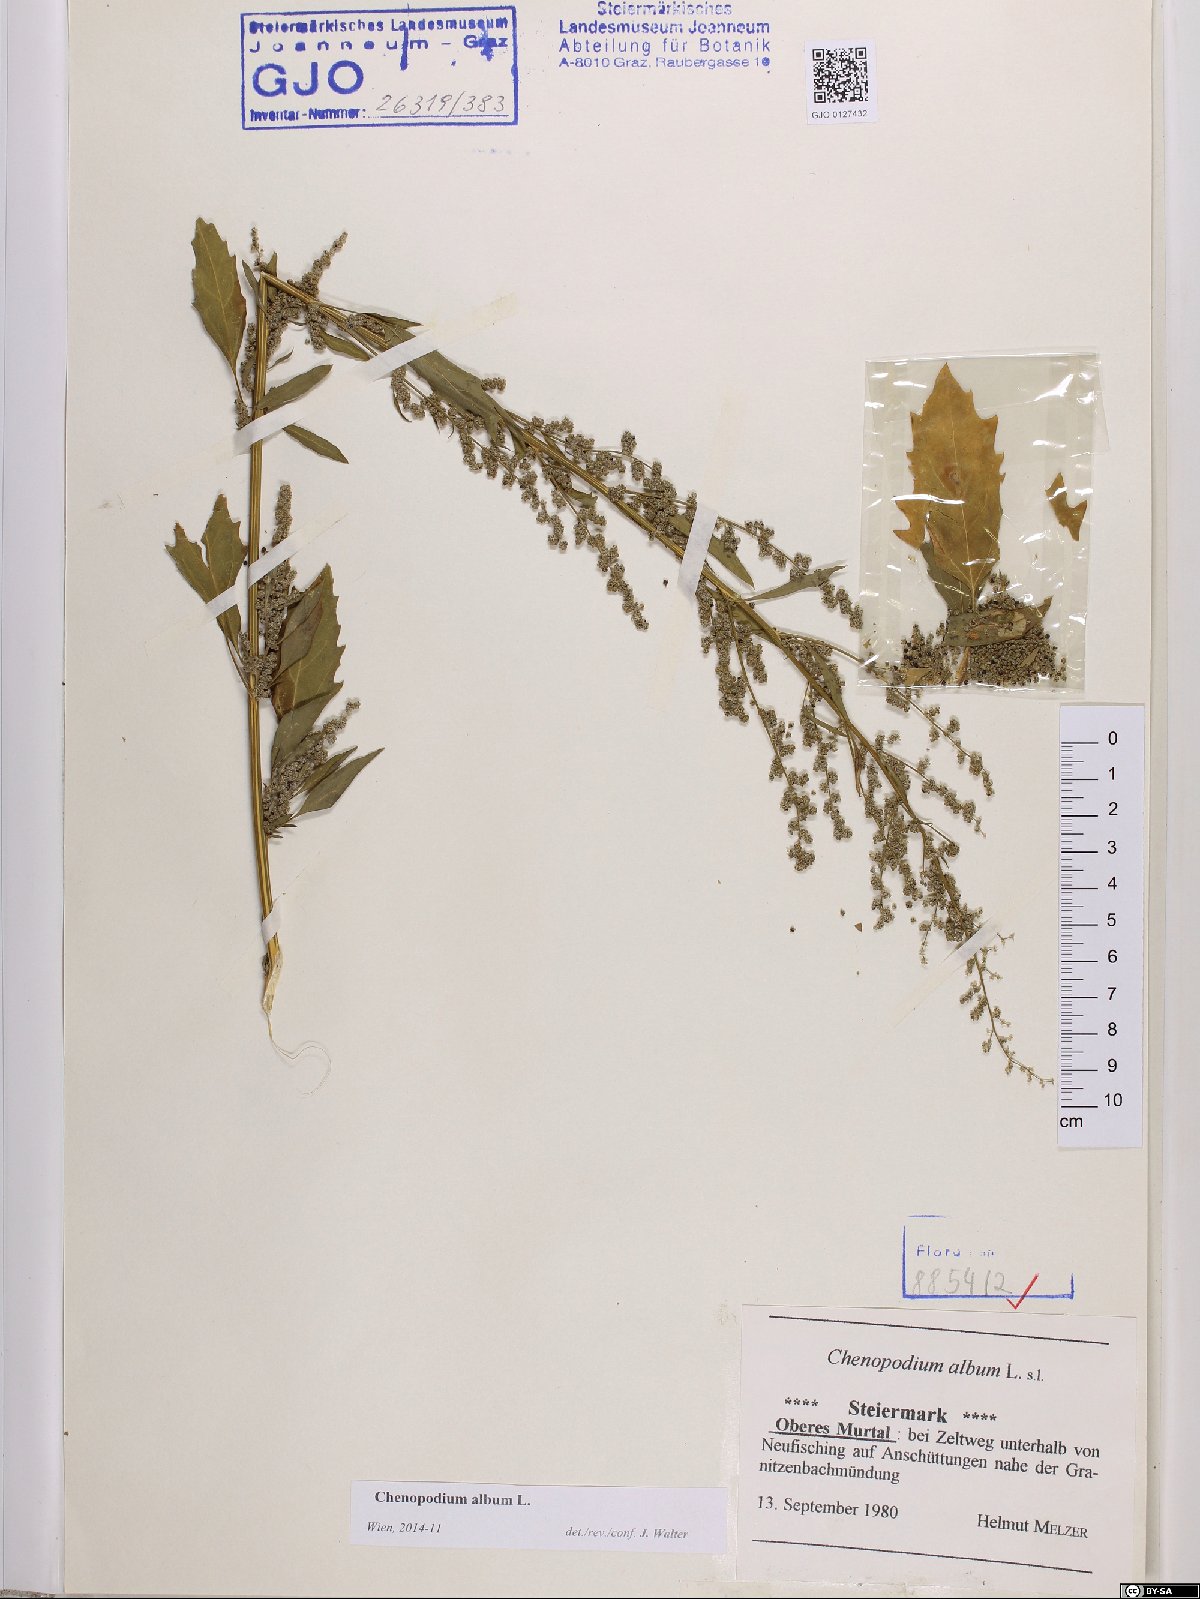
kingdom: Plantae
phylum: Tracheophyta
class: Magnoliopsida
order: Caryophyllales
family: Amaranthaceae
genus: Chenopodium
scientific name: Chenopodium album
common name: Fat-hen
